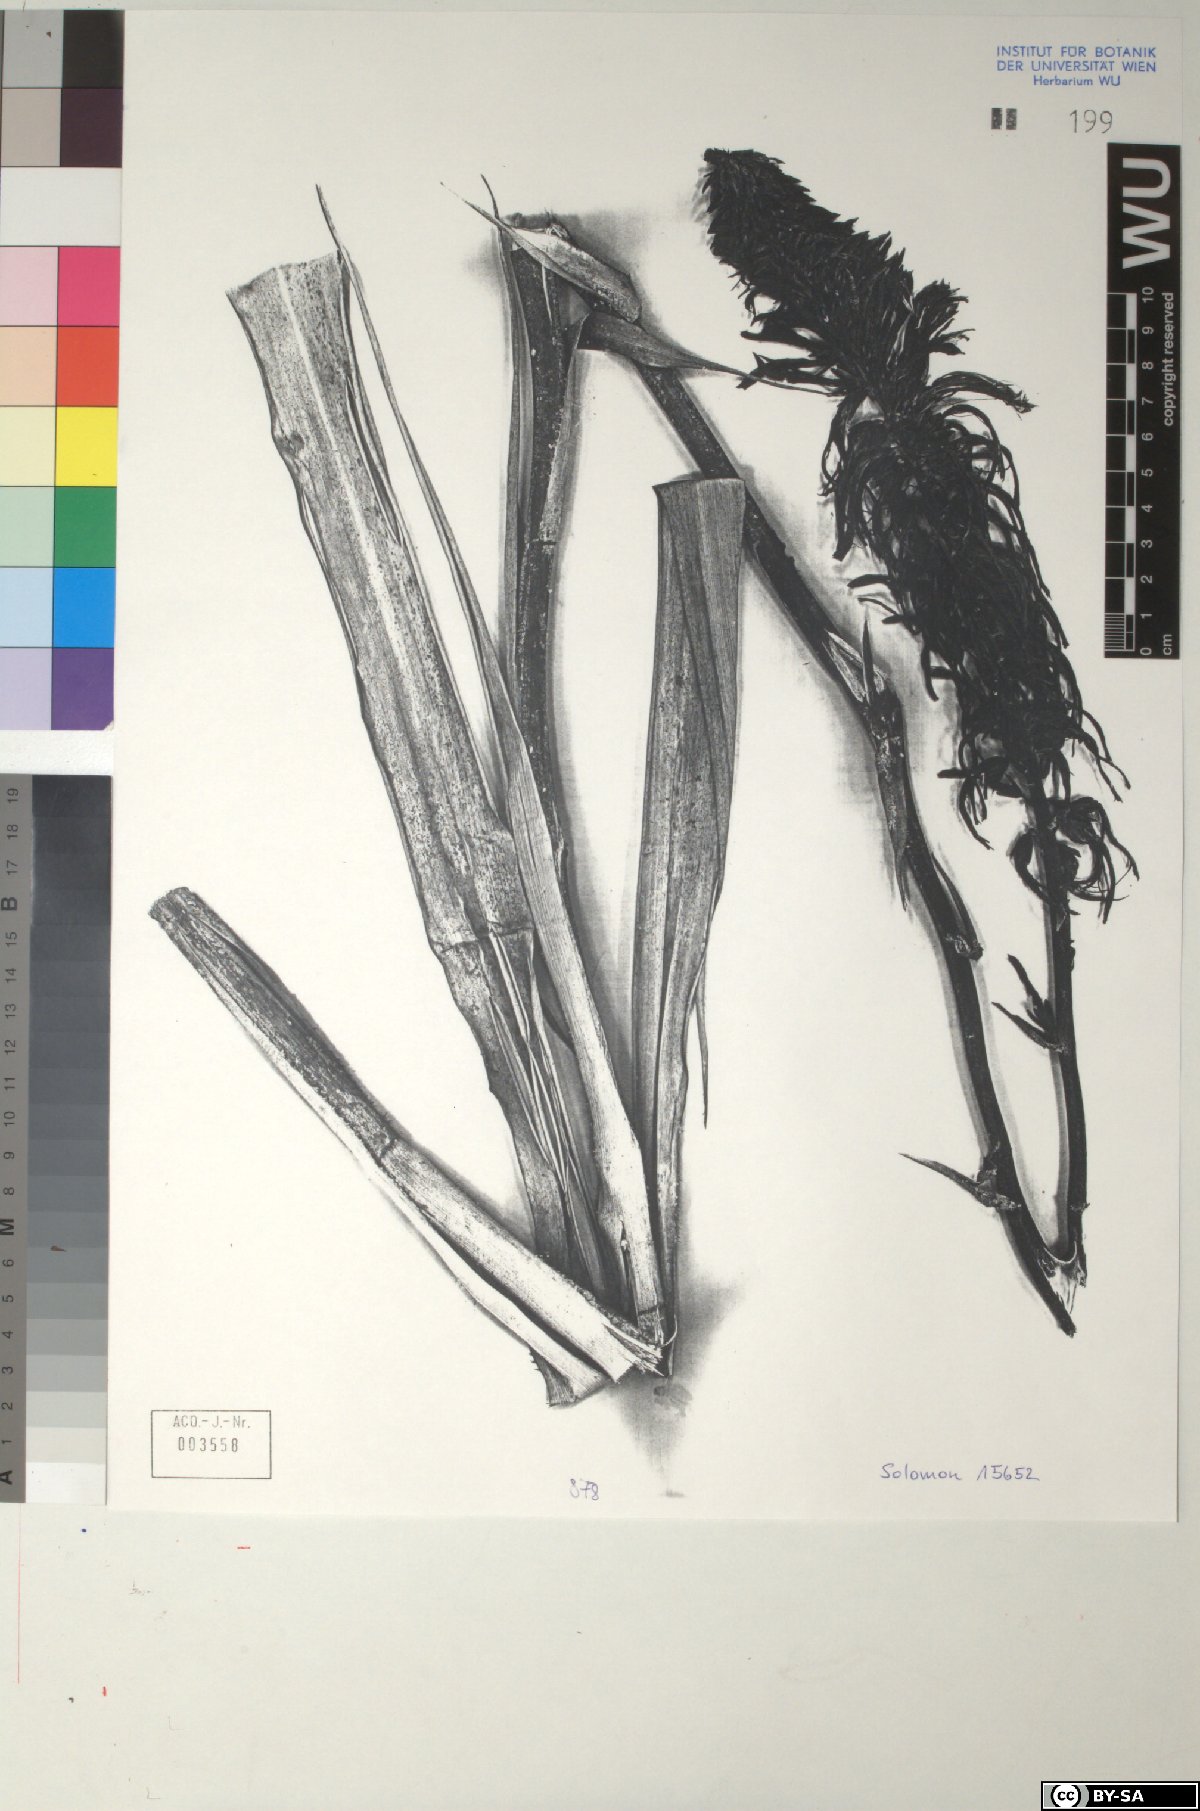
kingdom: Plantae
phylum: Tracheophyta
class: Liliopsida
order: Poales
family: Bromeliaceae
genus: Pitcairnia
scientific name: Pitcairnia trianae
